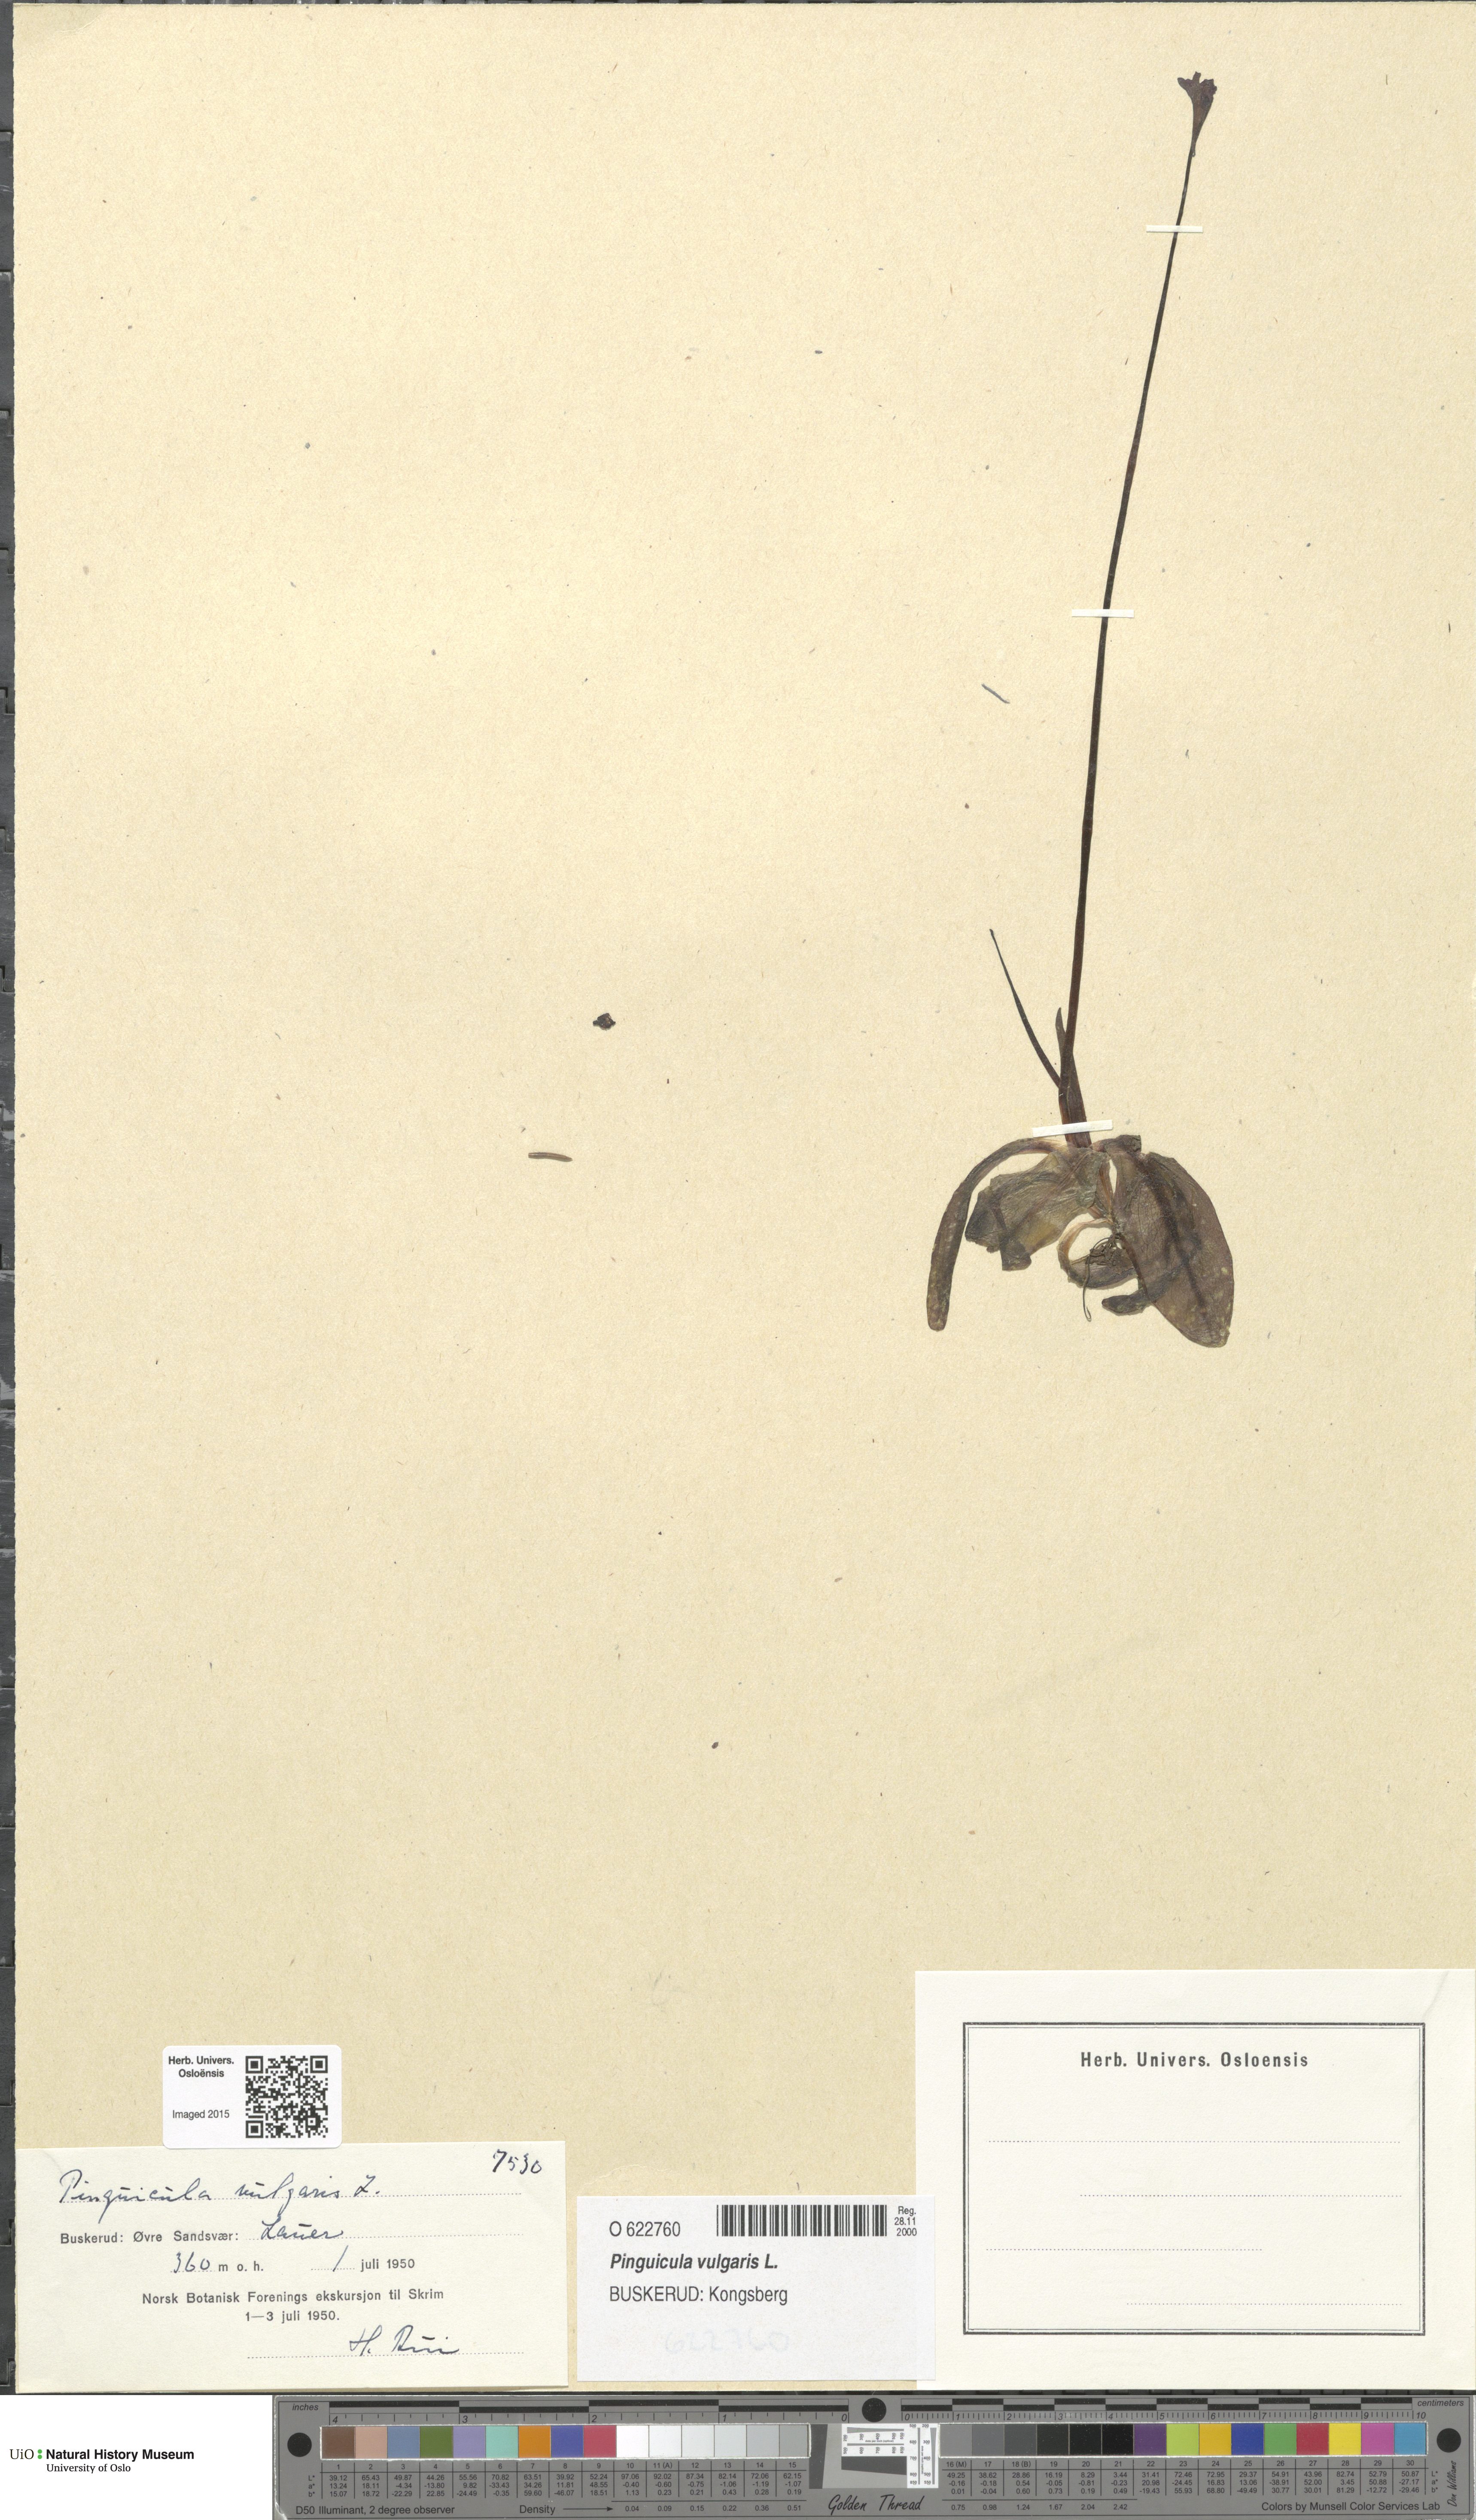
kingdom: Plantae
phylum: Tracheophyta
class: Magnoliopsida
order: Lamiales
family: Lentibulariaceae
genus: Pinguicula
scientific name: Pinguicula vulgaris
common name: Common butterwort
